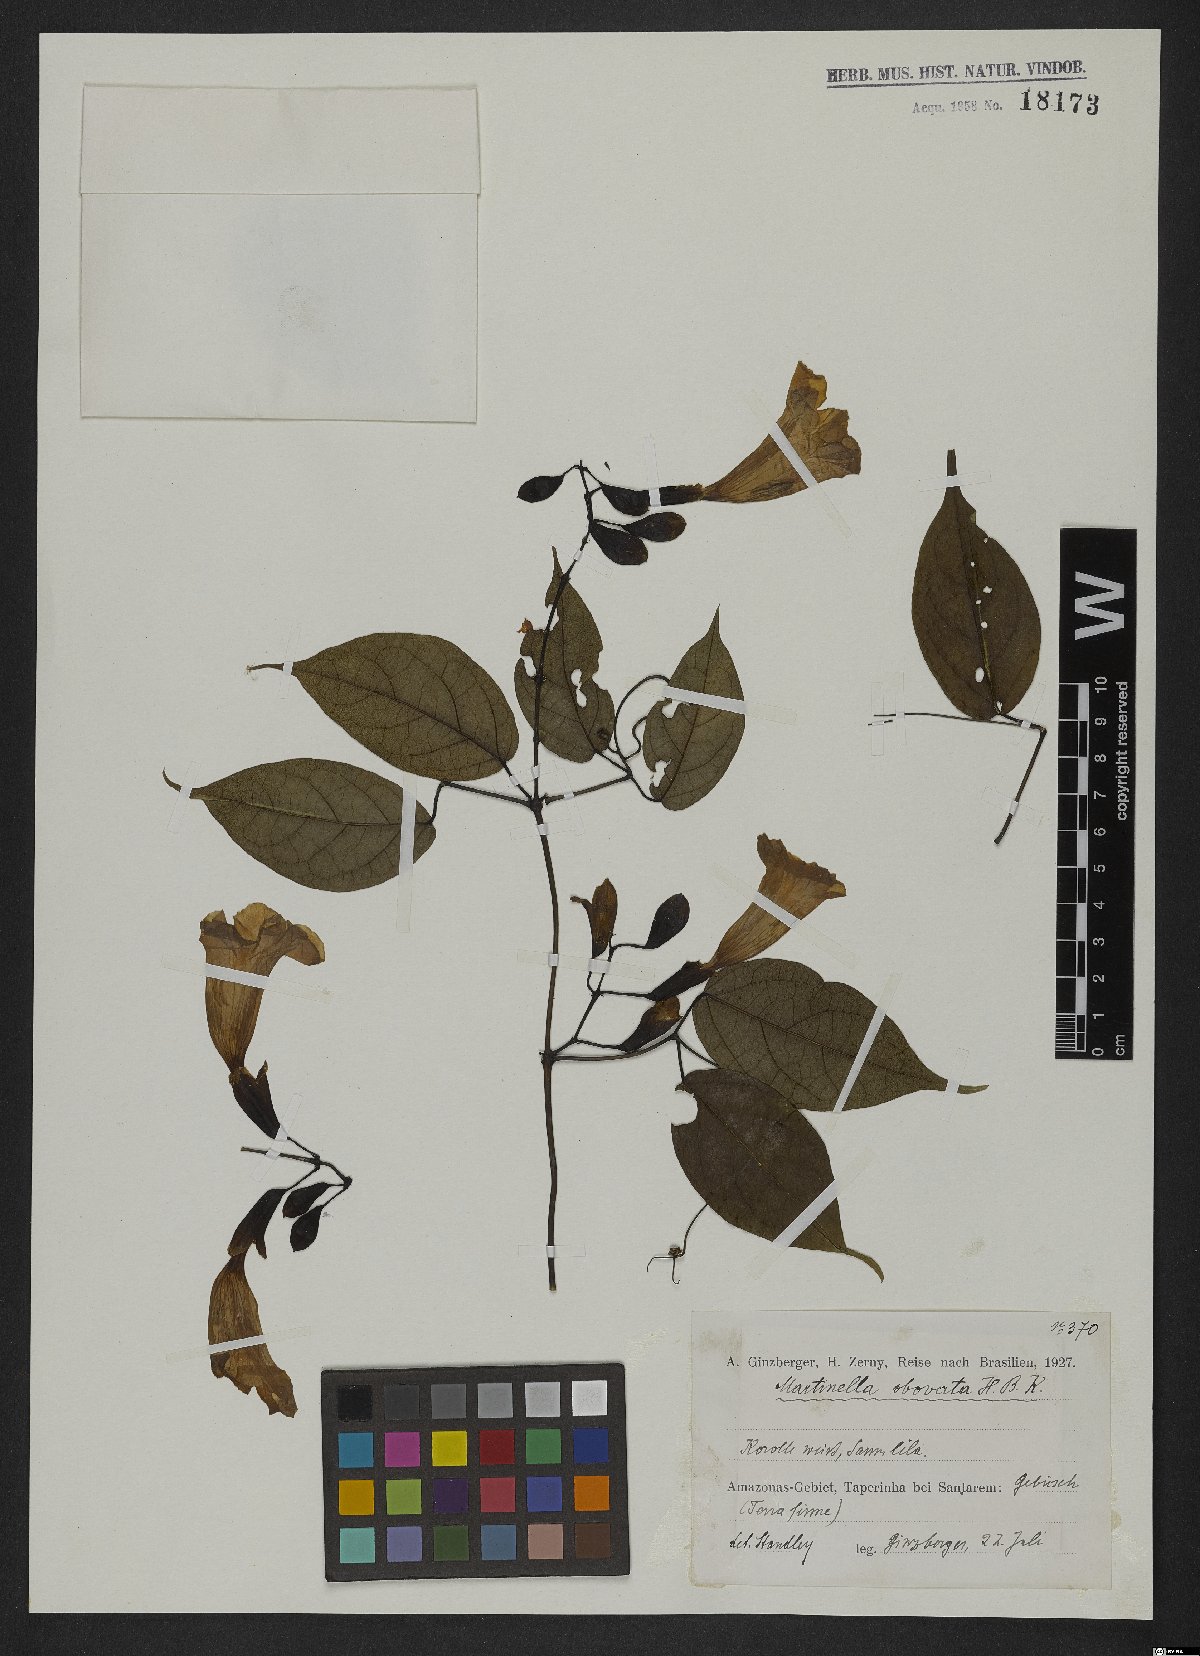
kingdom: Animalia
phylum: Arthropoda
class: Insecta
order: Coleoptera
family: Chrysomelidae
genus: Martinella
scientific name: Martinella obovata
